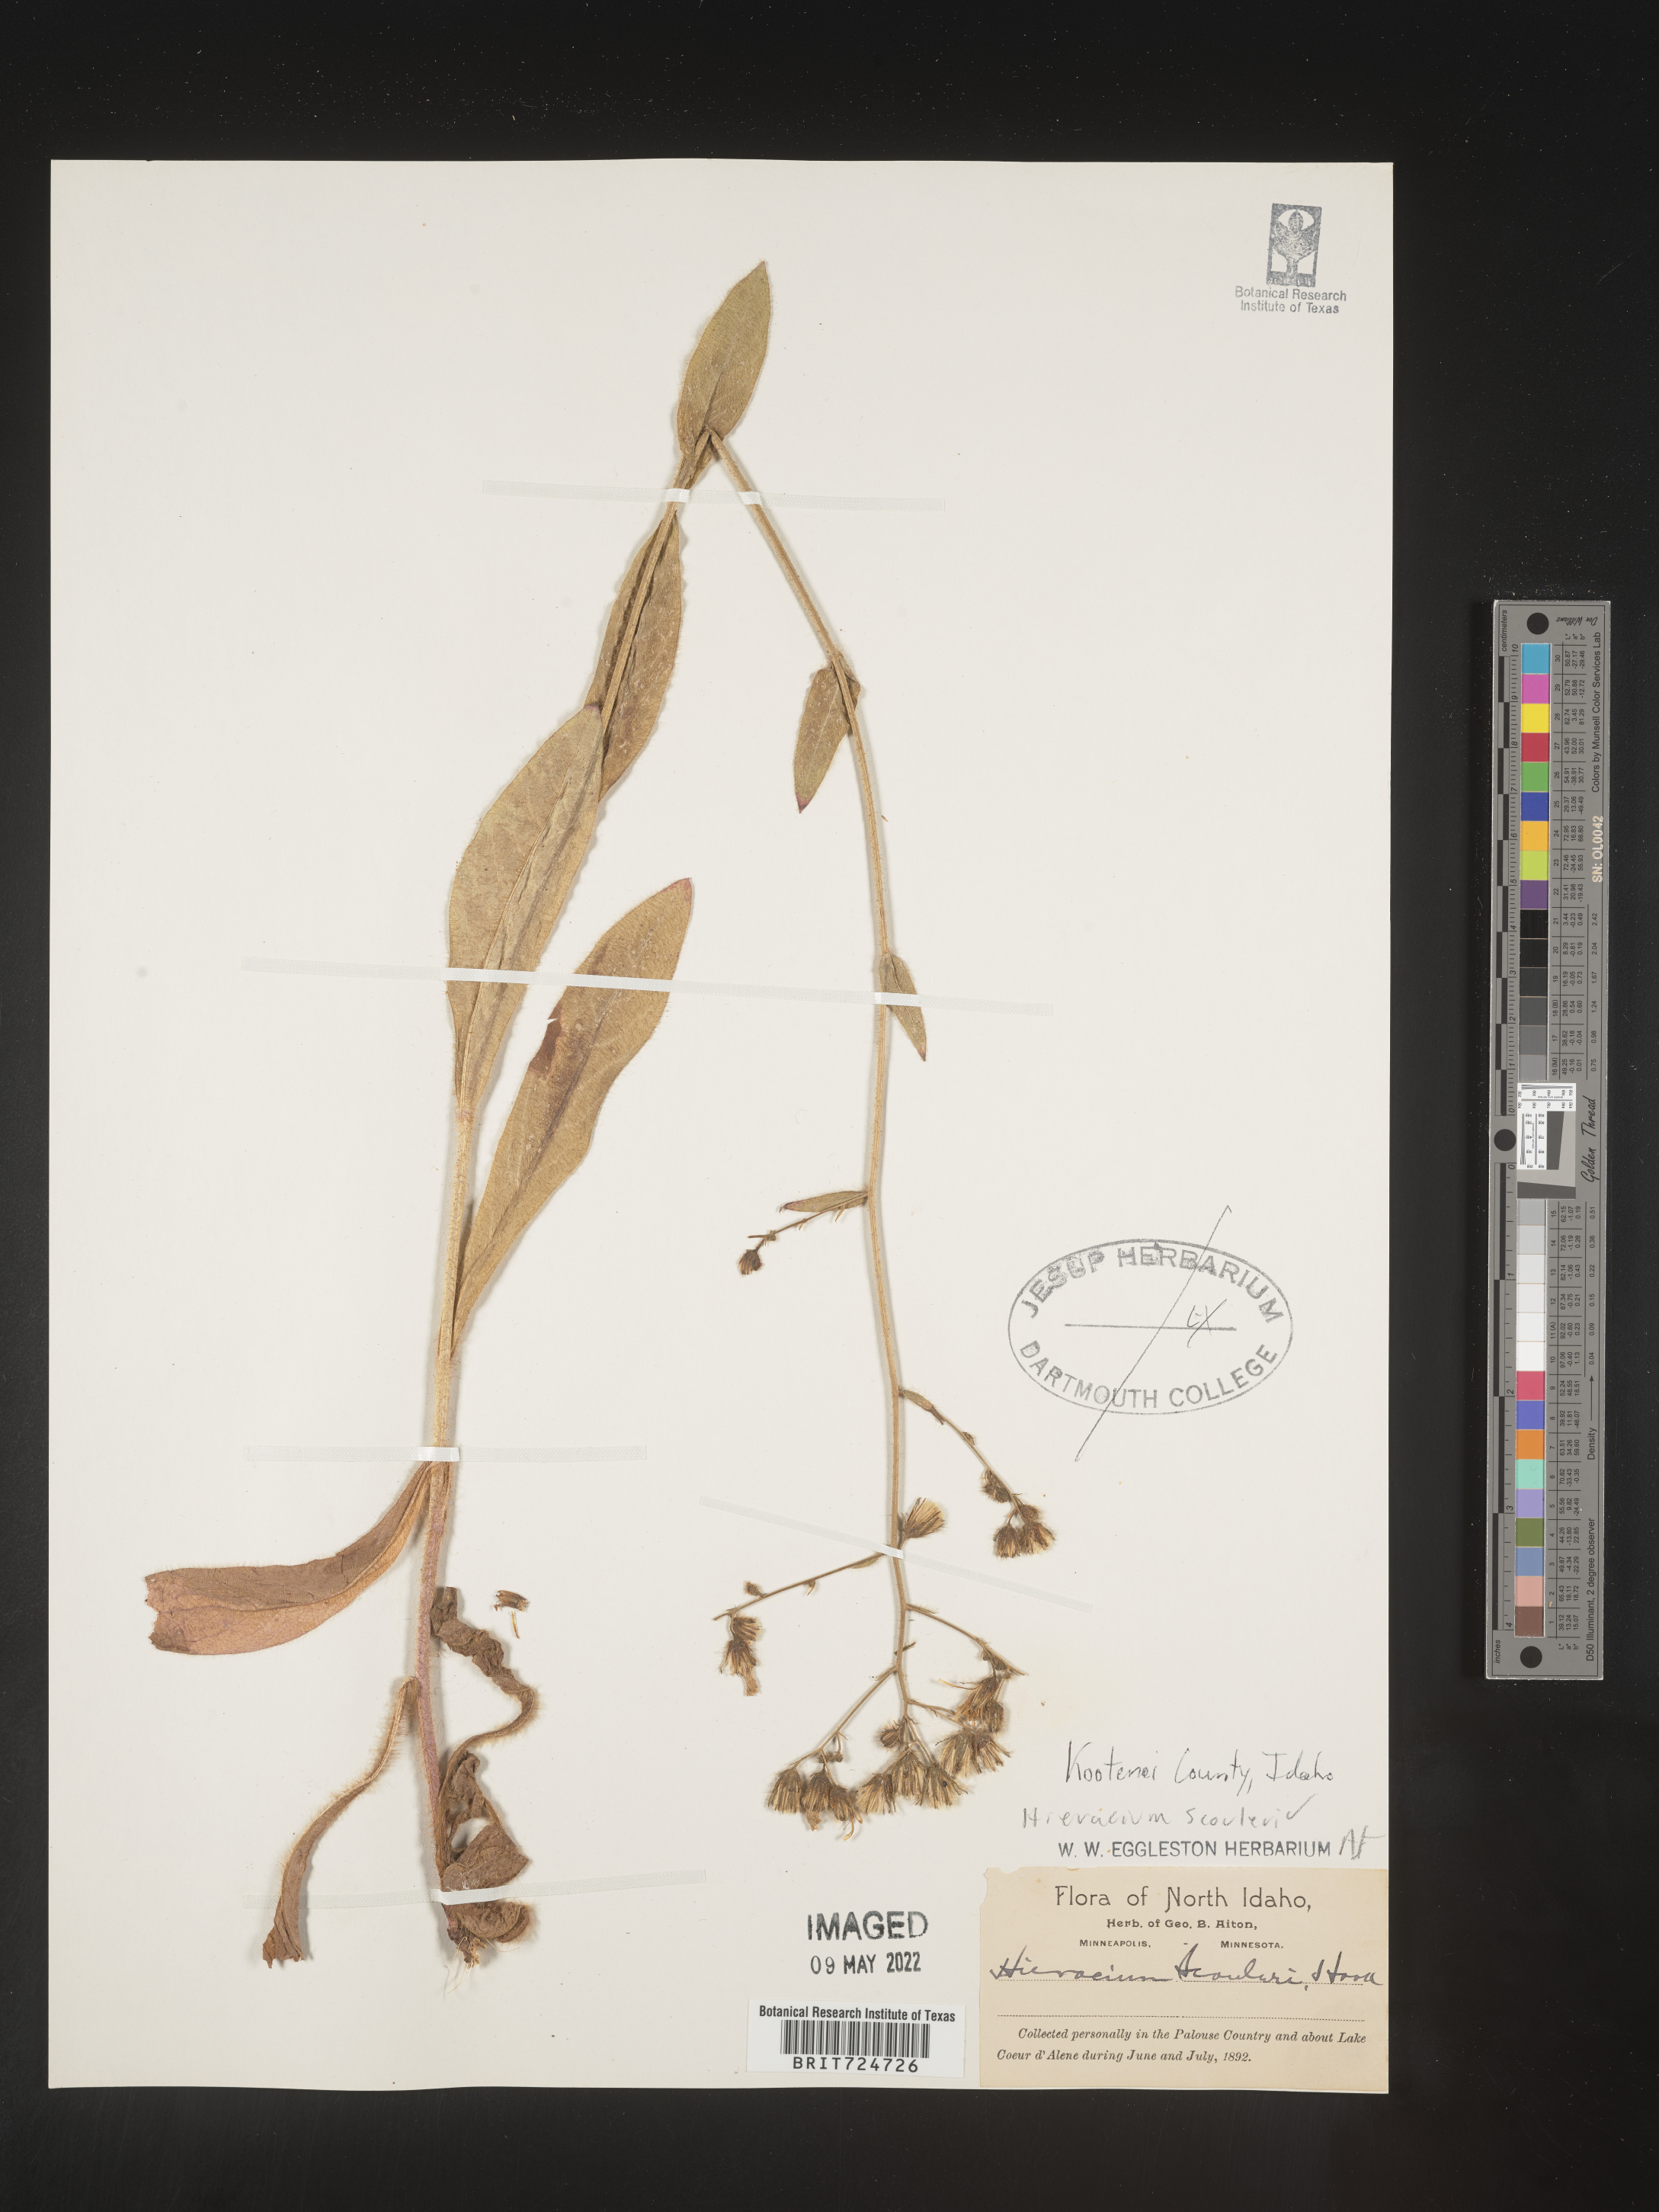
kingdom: Plantae
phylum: Tracheophyta
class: Magnoliopsida
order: Asterales
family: Asteraceae
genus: Hieracium
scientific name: Hieracium scabrum
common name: Rough hawkweed
